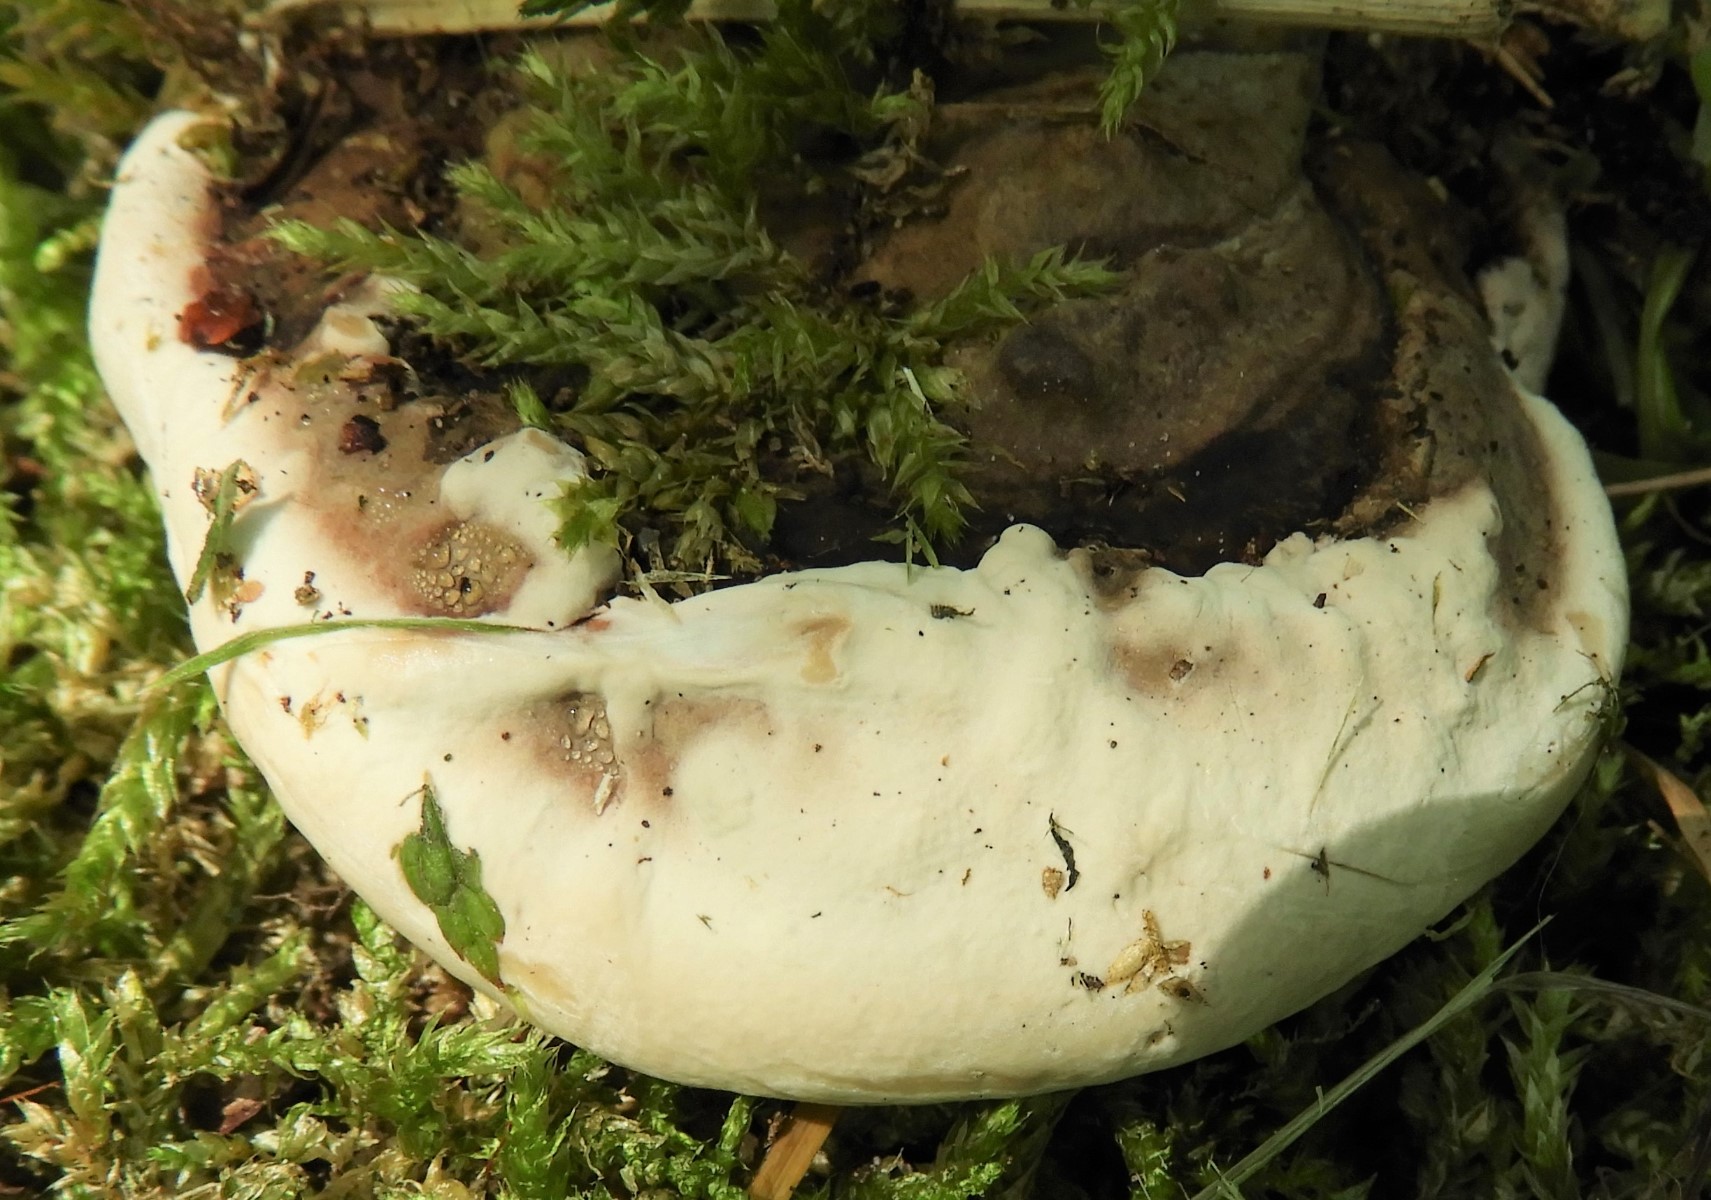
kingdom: Fungi
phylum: Basidiomycota
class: Agaricomycetes
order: Polyporales
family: Polyporaceae
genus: Ganoderma
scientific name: Ganoderma applanatum
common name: flad lakporesvamp
